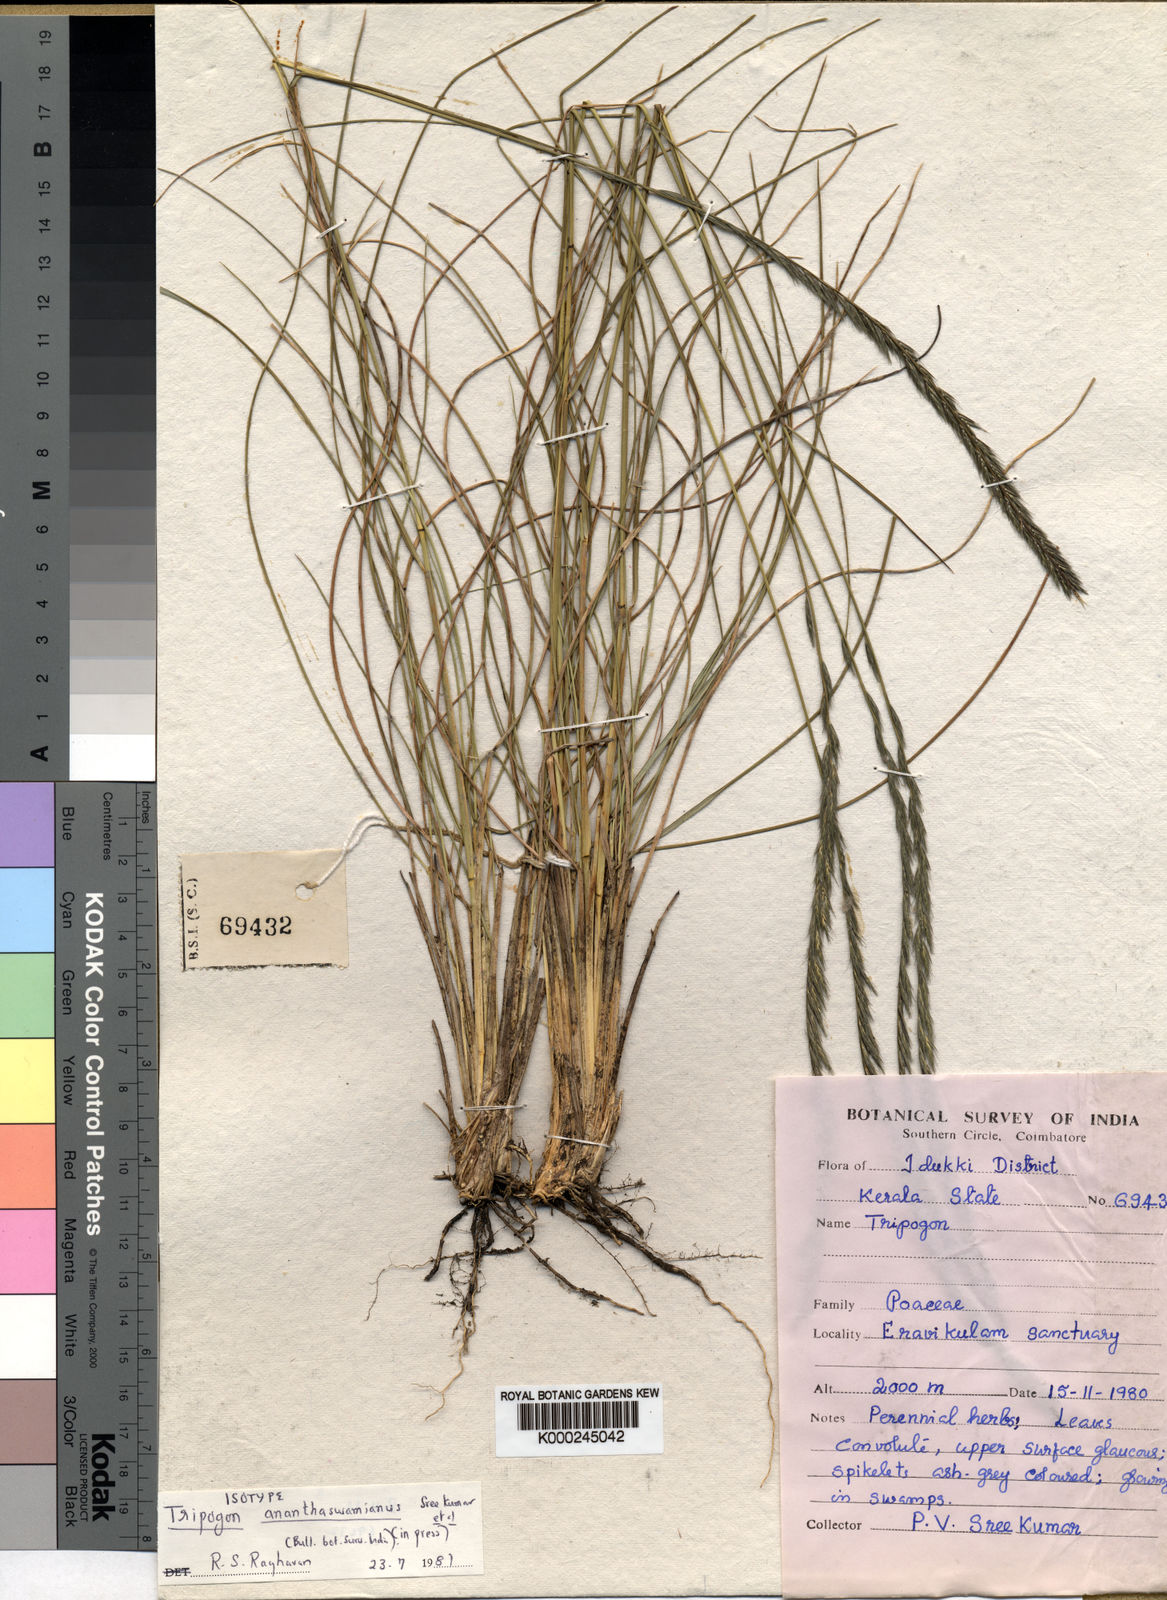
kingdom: Plantae
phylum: Tracheophyta
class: Liliopsida
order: Poales
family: Poaceae
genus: Tripogon
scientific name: Tripogon
